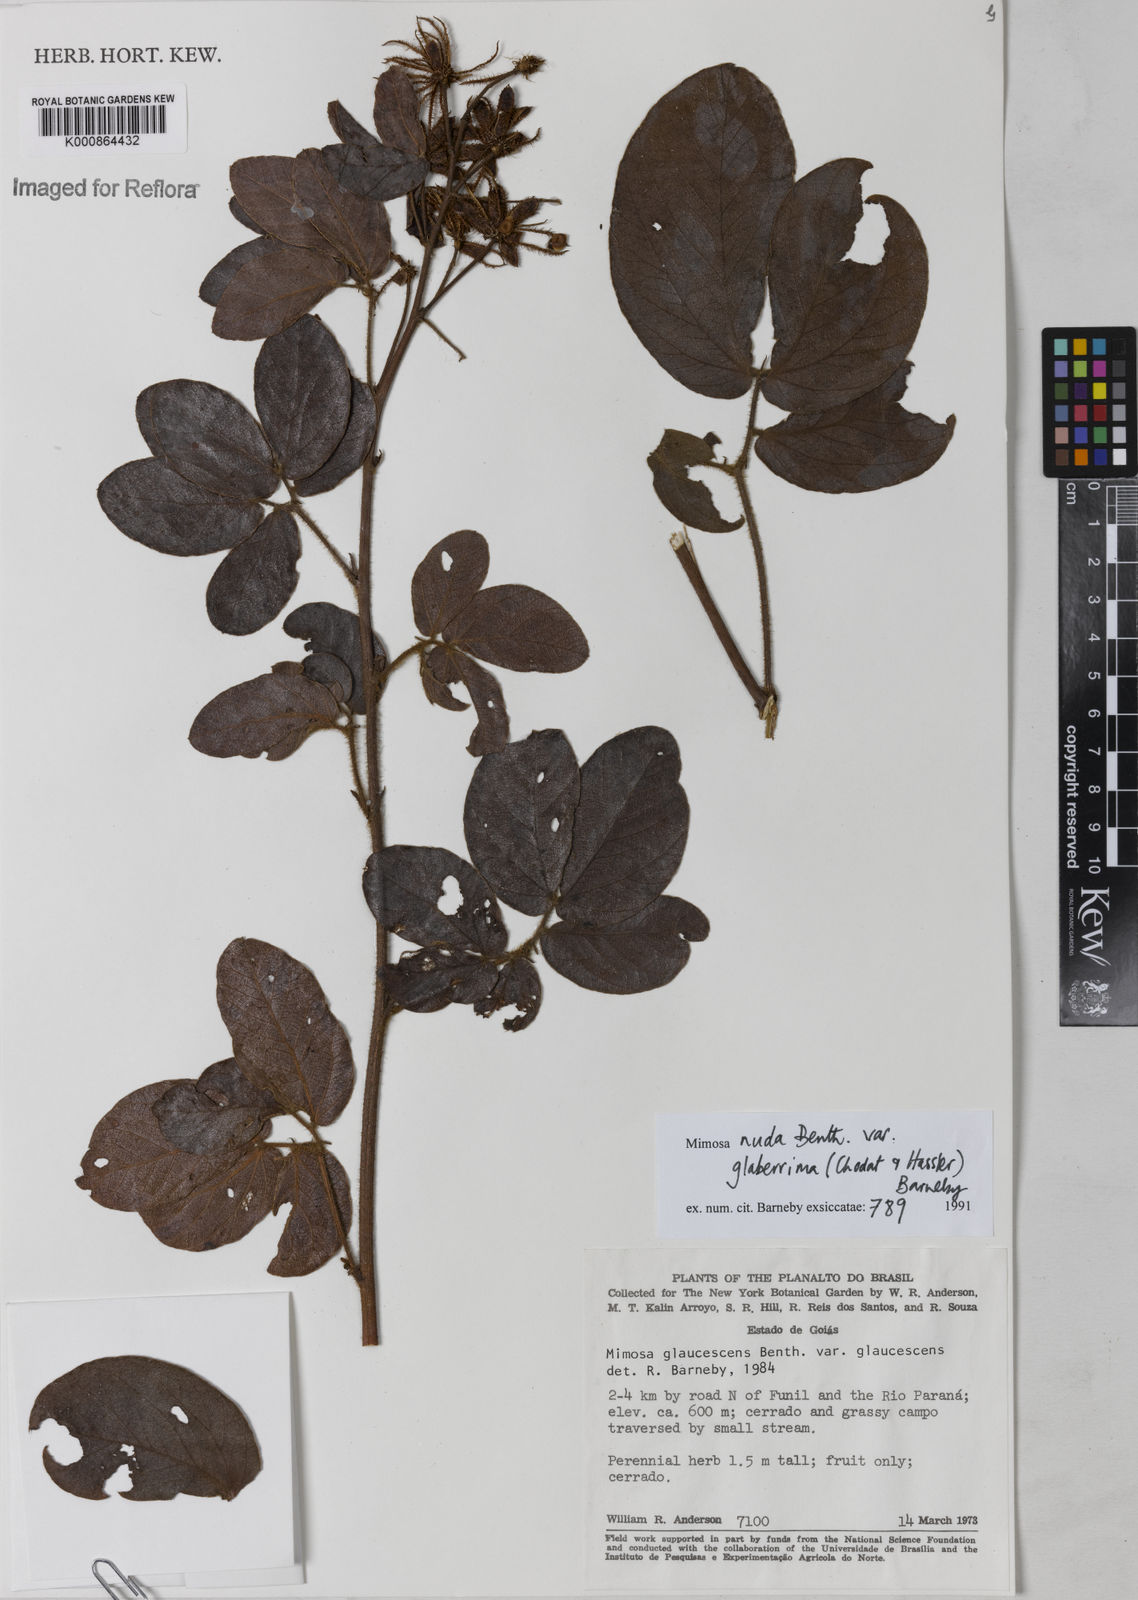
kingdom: Plantae
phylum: Tracheophyta
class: Magnoliopsida
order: Fabales
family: Fabaceae
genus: Mimosa
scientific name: Mimosa debilis
